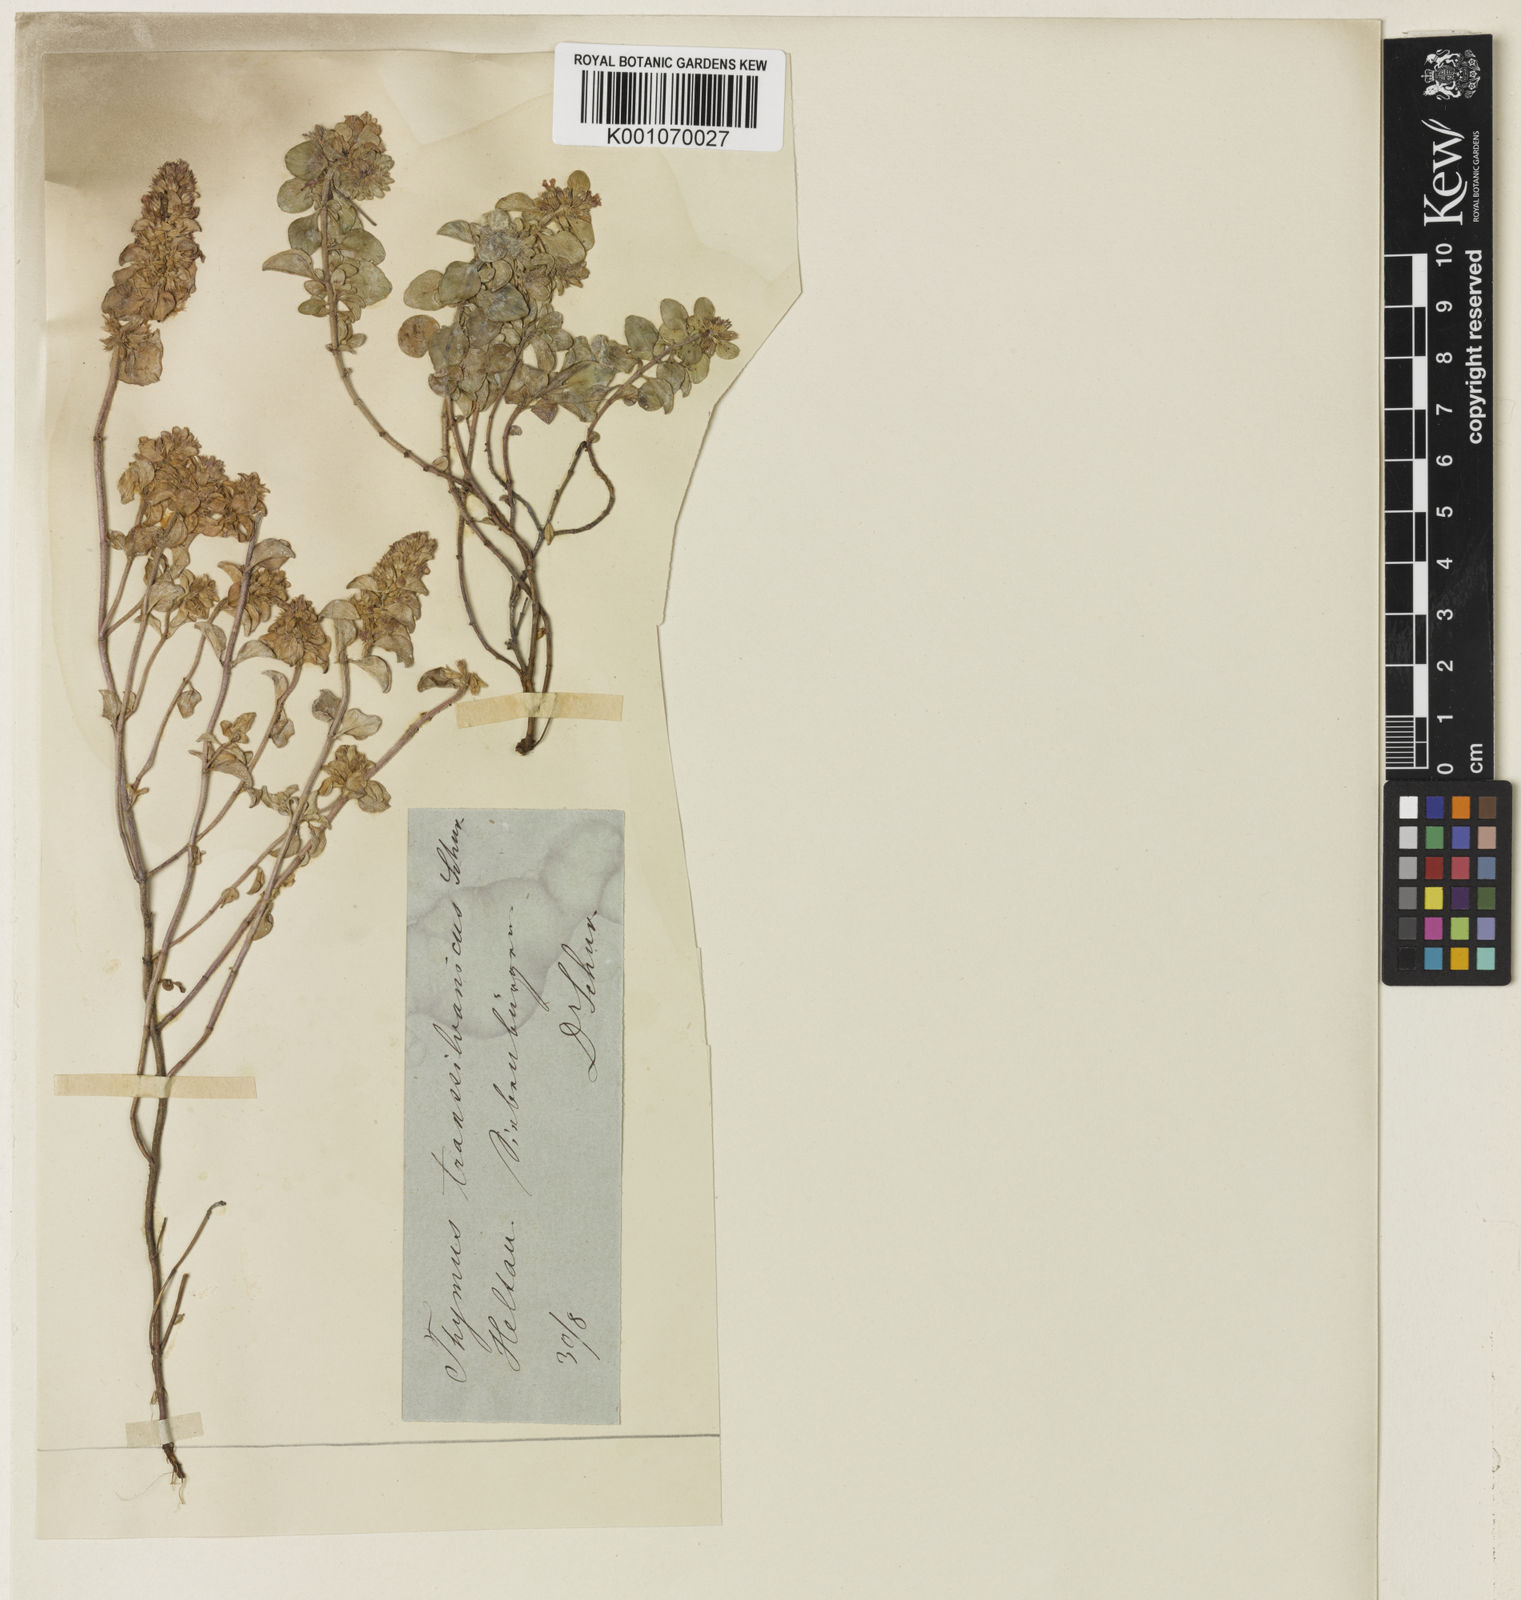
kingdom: Plantae
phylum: Tracheophyta
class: Magnoliopsida
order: Lamiales
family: Lamiaceae
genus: Thymus
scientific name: Thymus comosus
